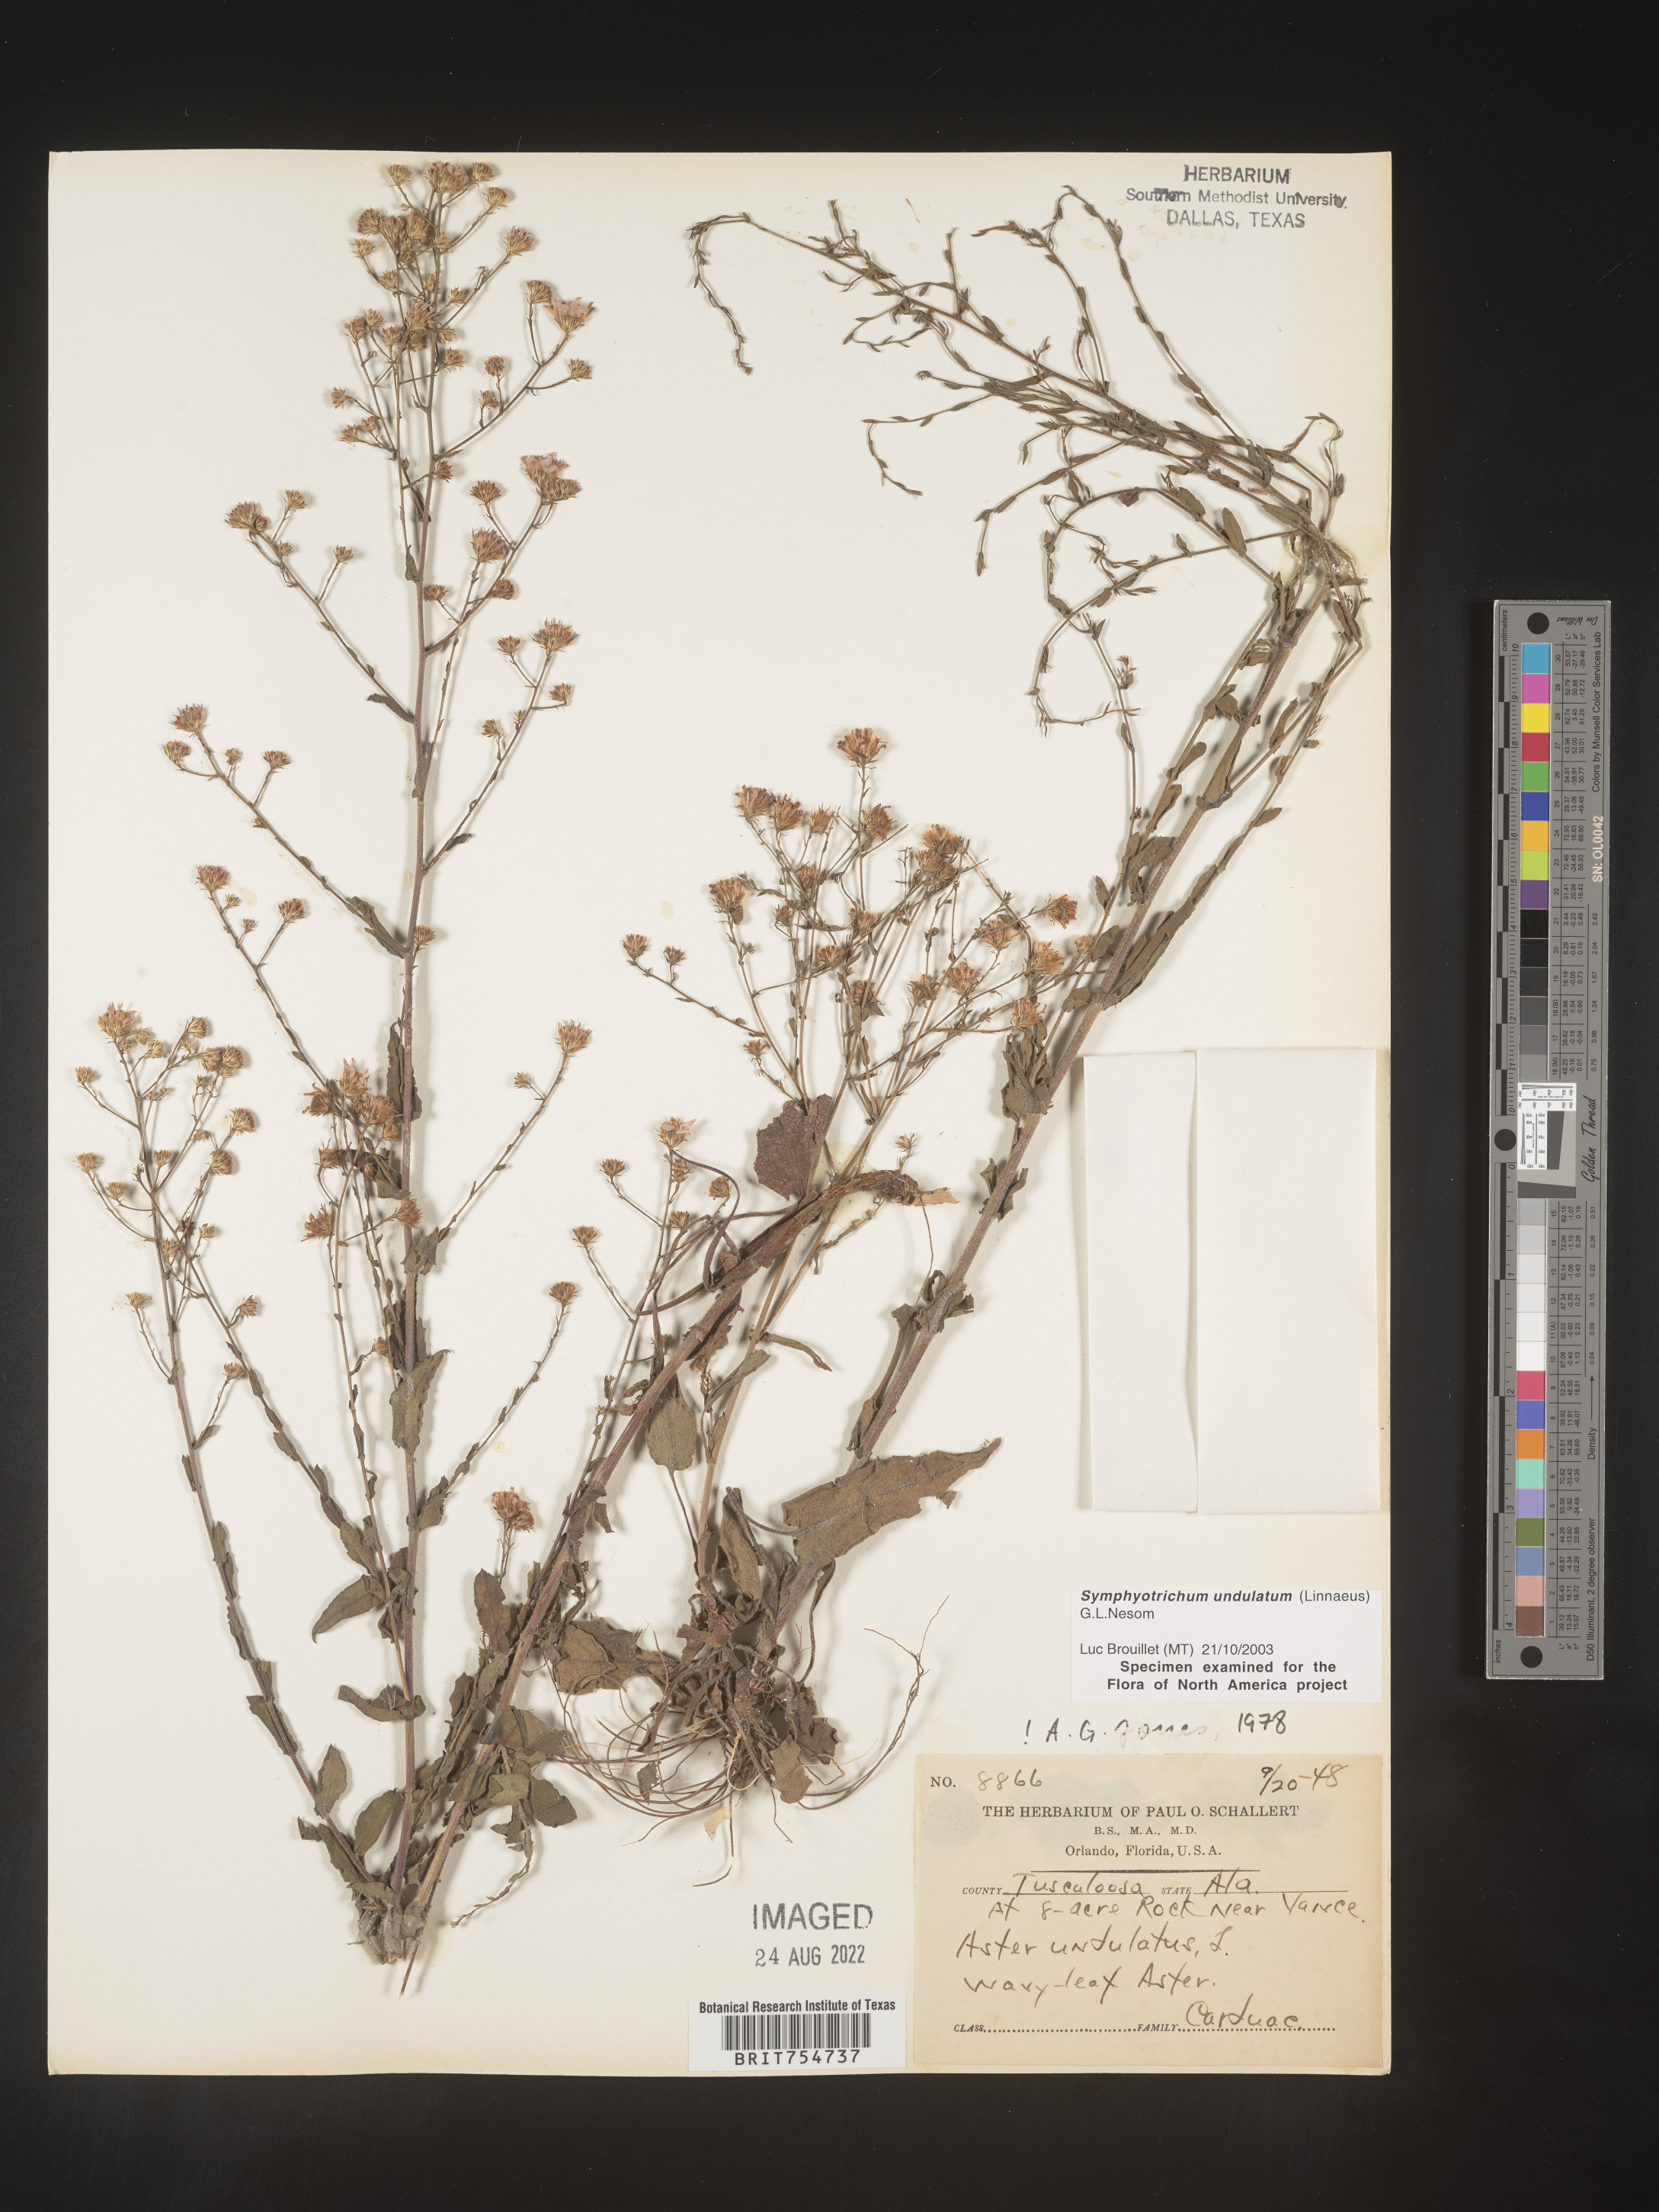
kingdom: Plantae
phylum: Tracheophyta
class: Magnoliopsida
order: Asterales
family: Asteraceae
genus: Symphyotrichum
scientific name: Symphyotrichum undulatum
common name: Clasping heart-leaf aster
